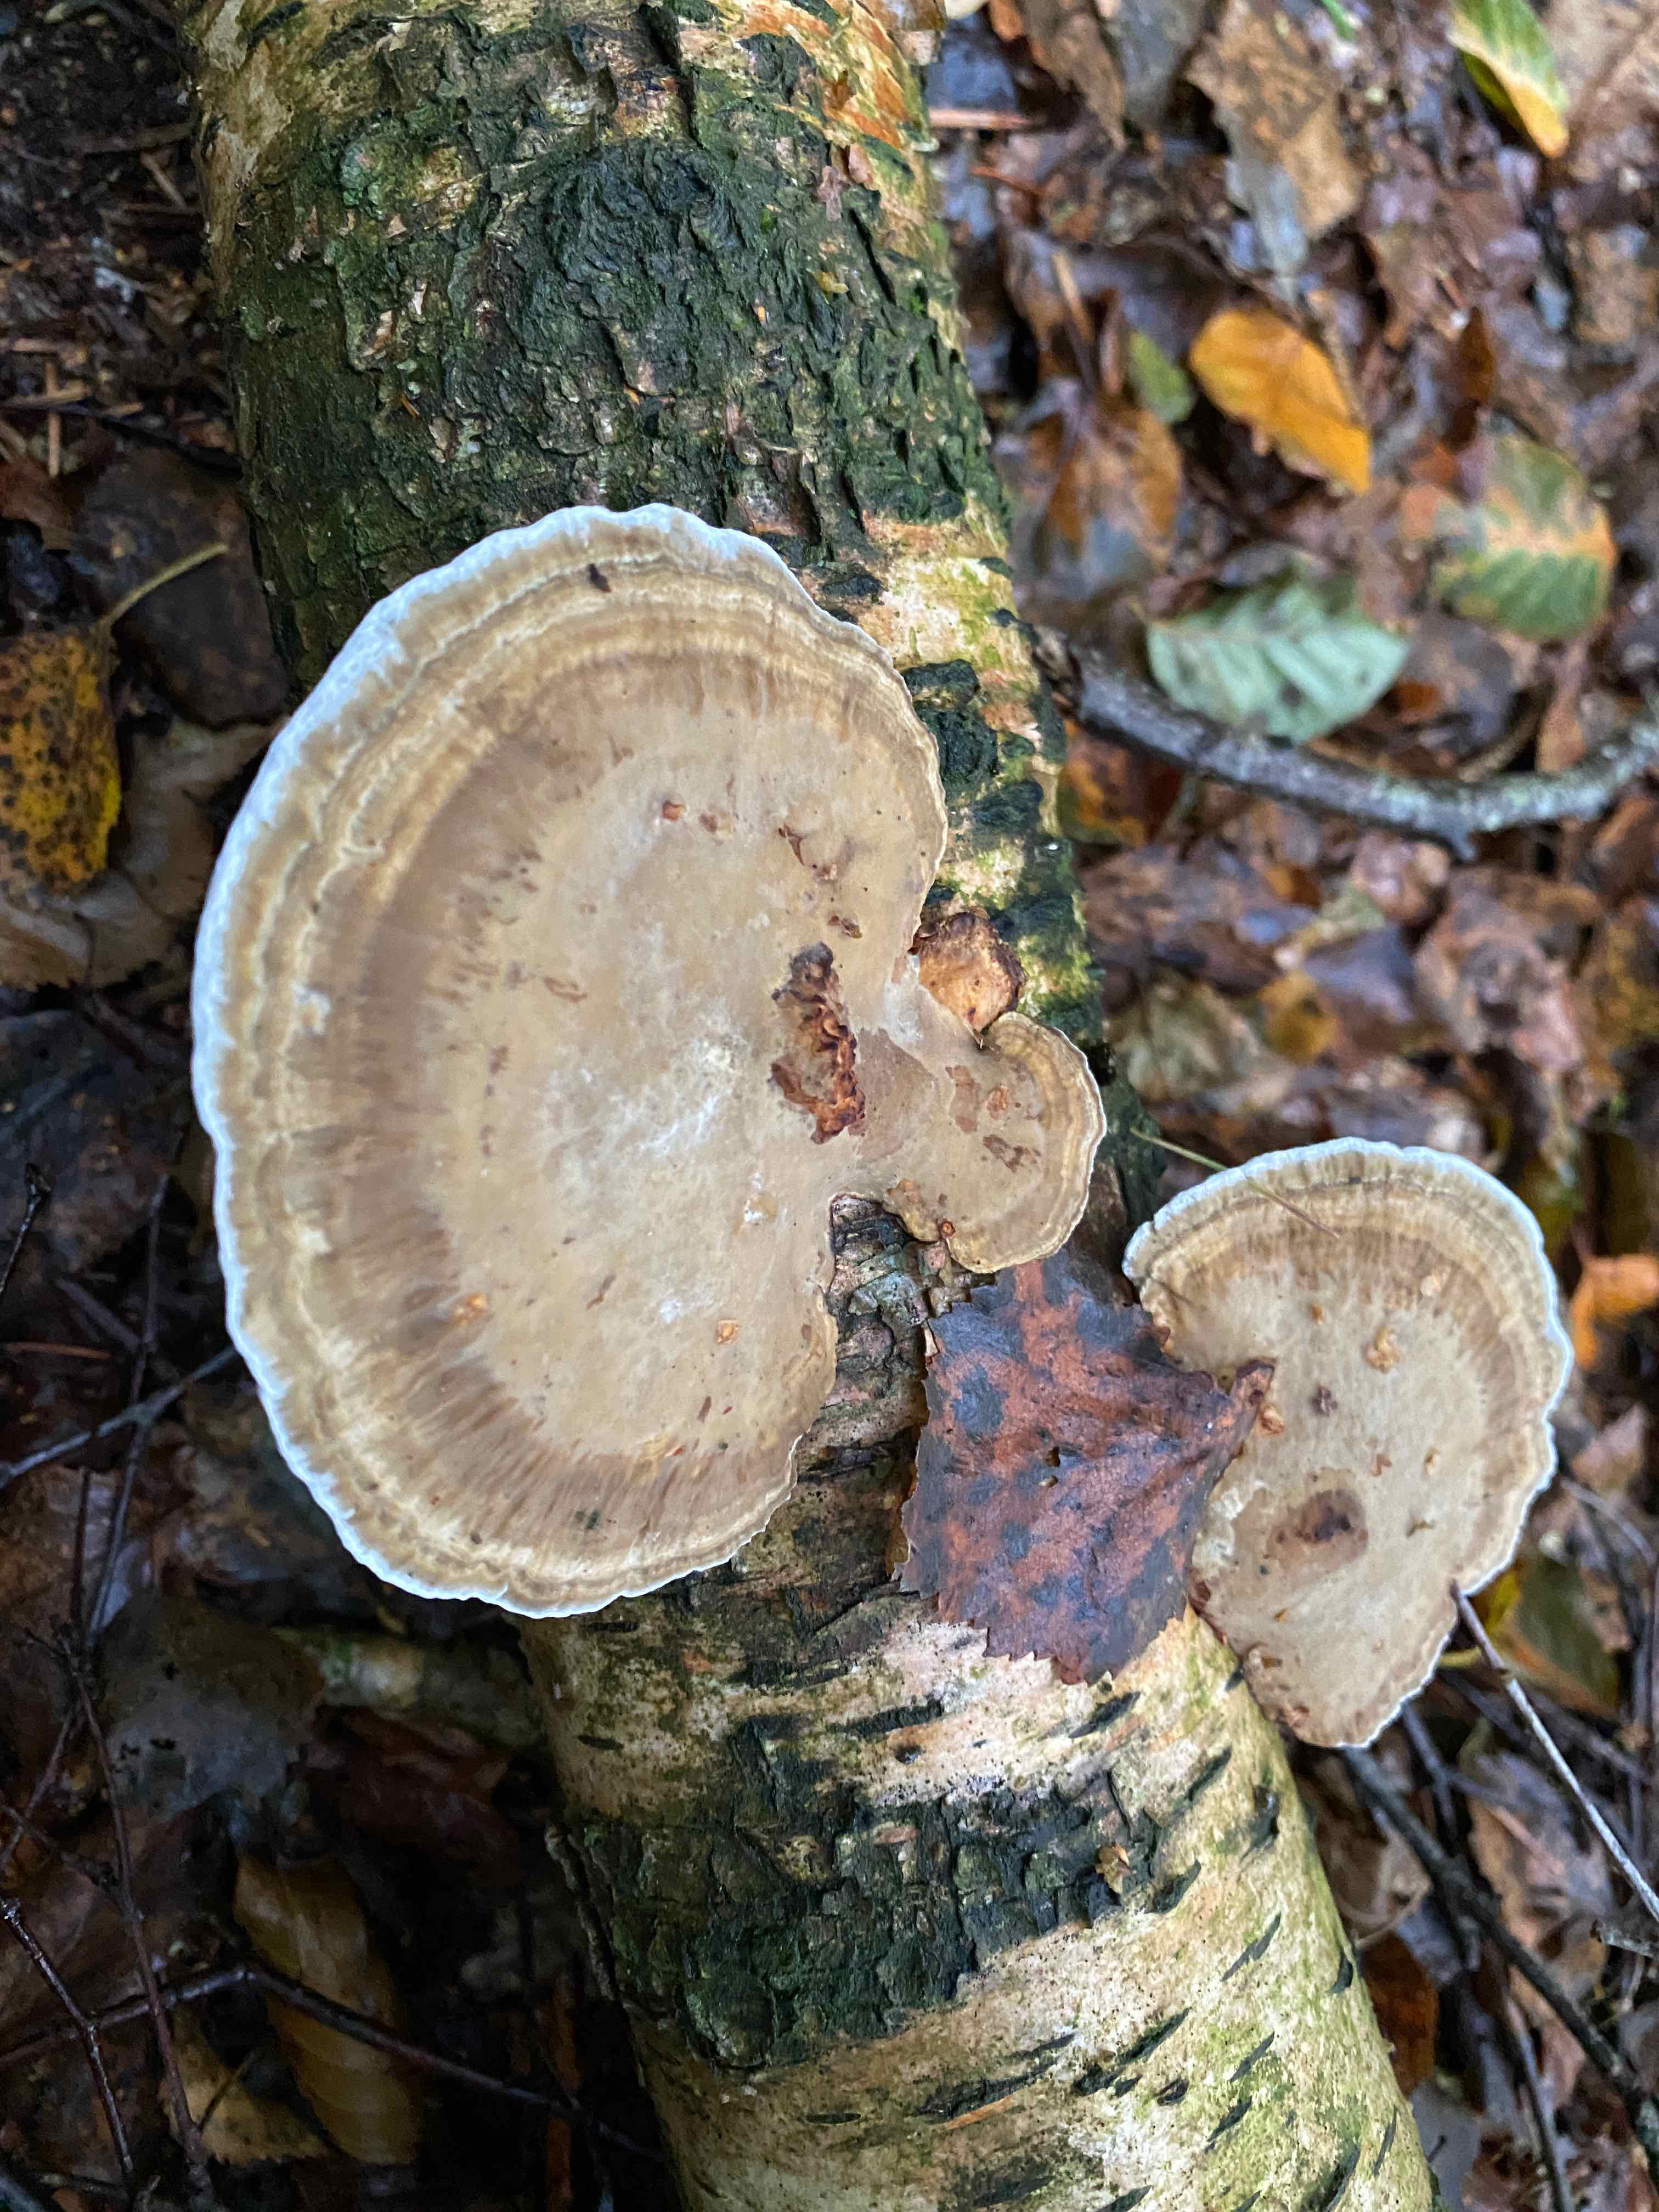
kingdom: Fungi
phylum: Basidiomycota
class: Agaricomycetes
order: Polyporales
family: Polyporaceae
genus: Daedaleopsis
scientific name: Daedaleopsis confragosa
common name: rødmende læderporesvamp
